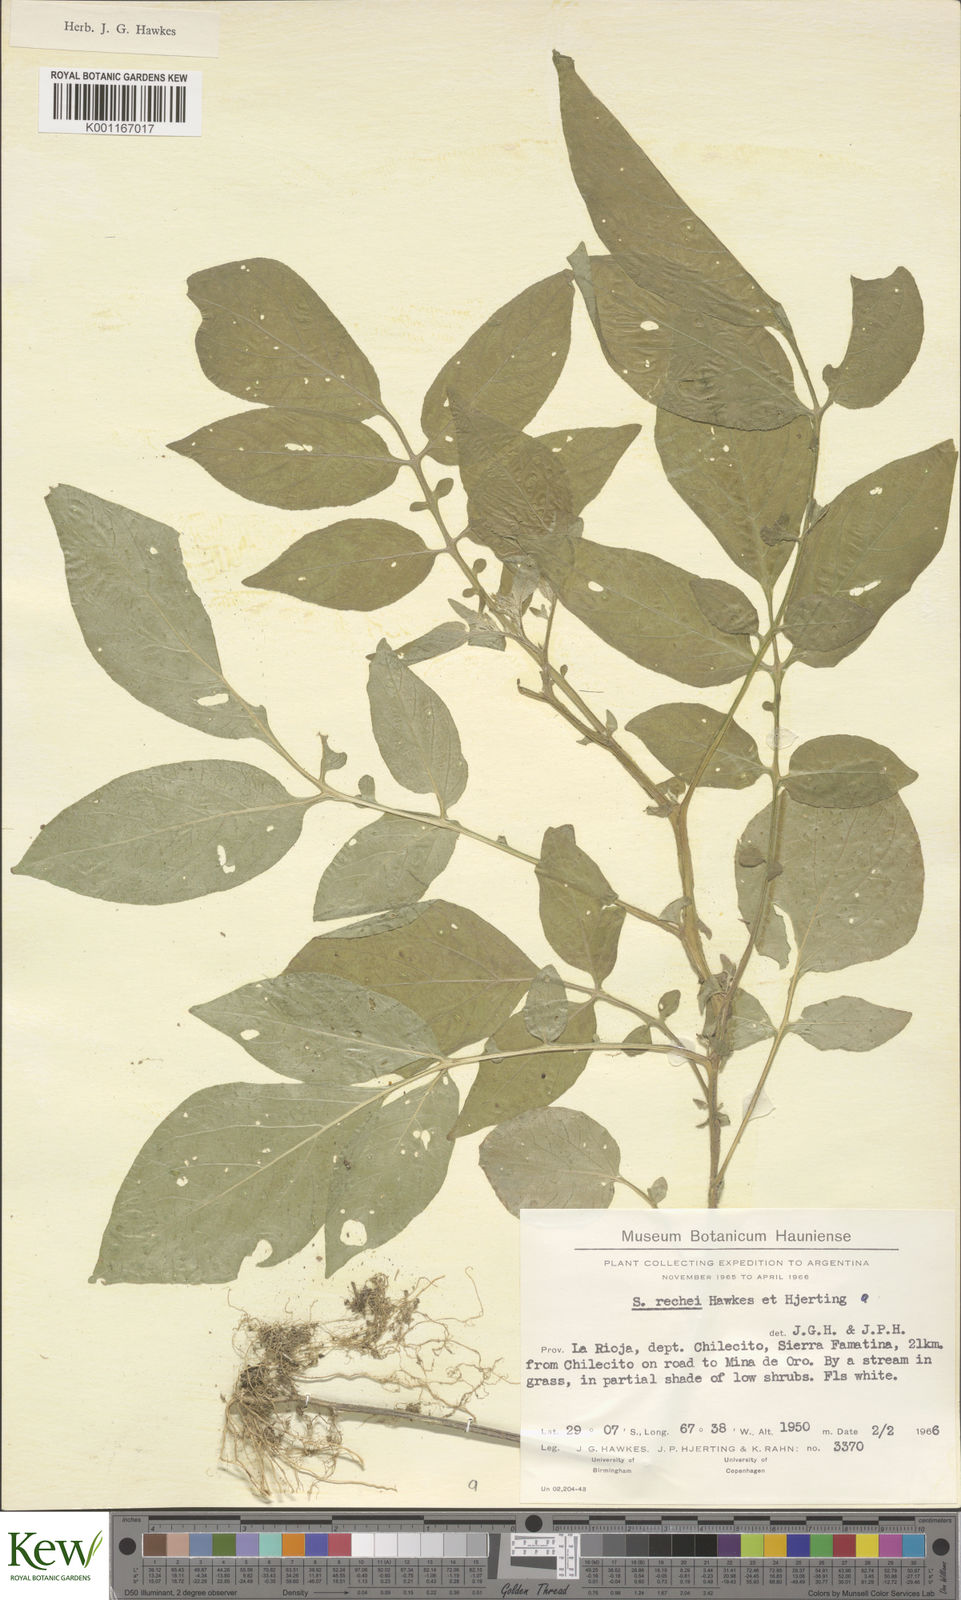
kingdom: Plantae
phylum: Tracheophyta
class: Magnoliopsida
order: Solanales
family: Solanaceae
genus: Solanum
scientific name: Solanum rechei
